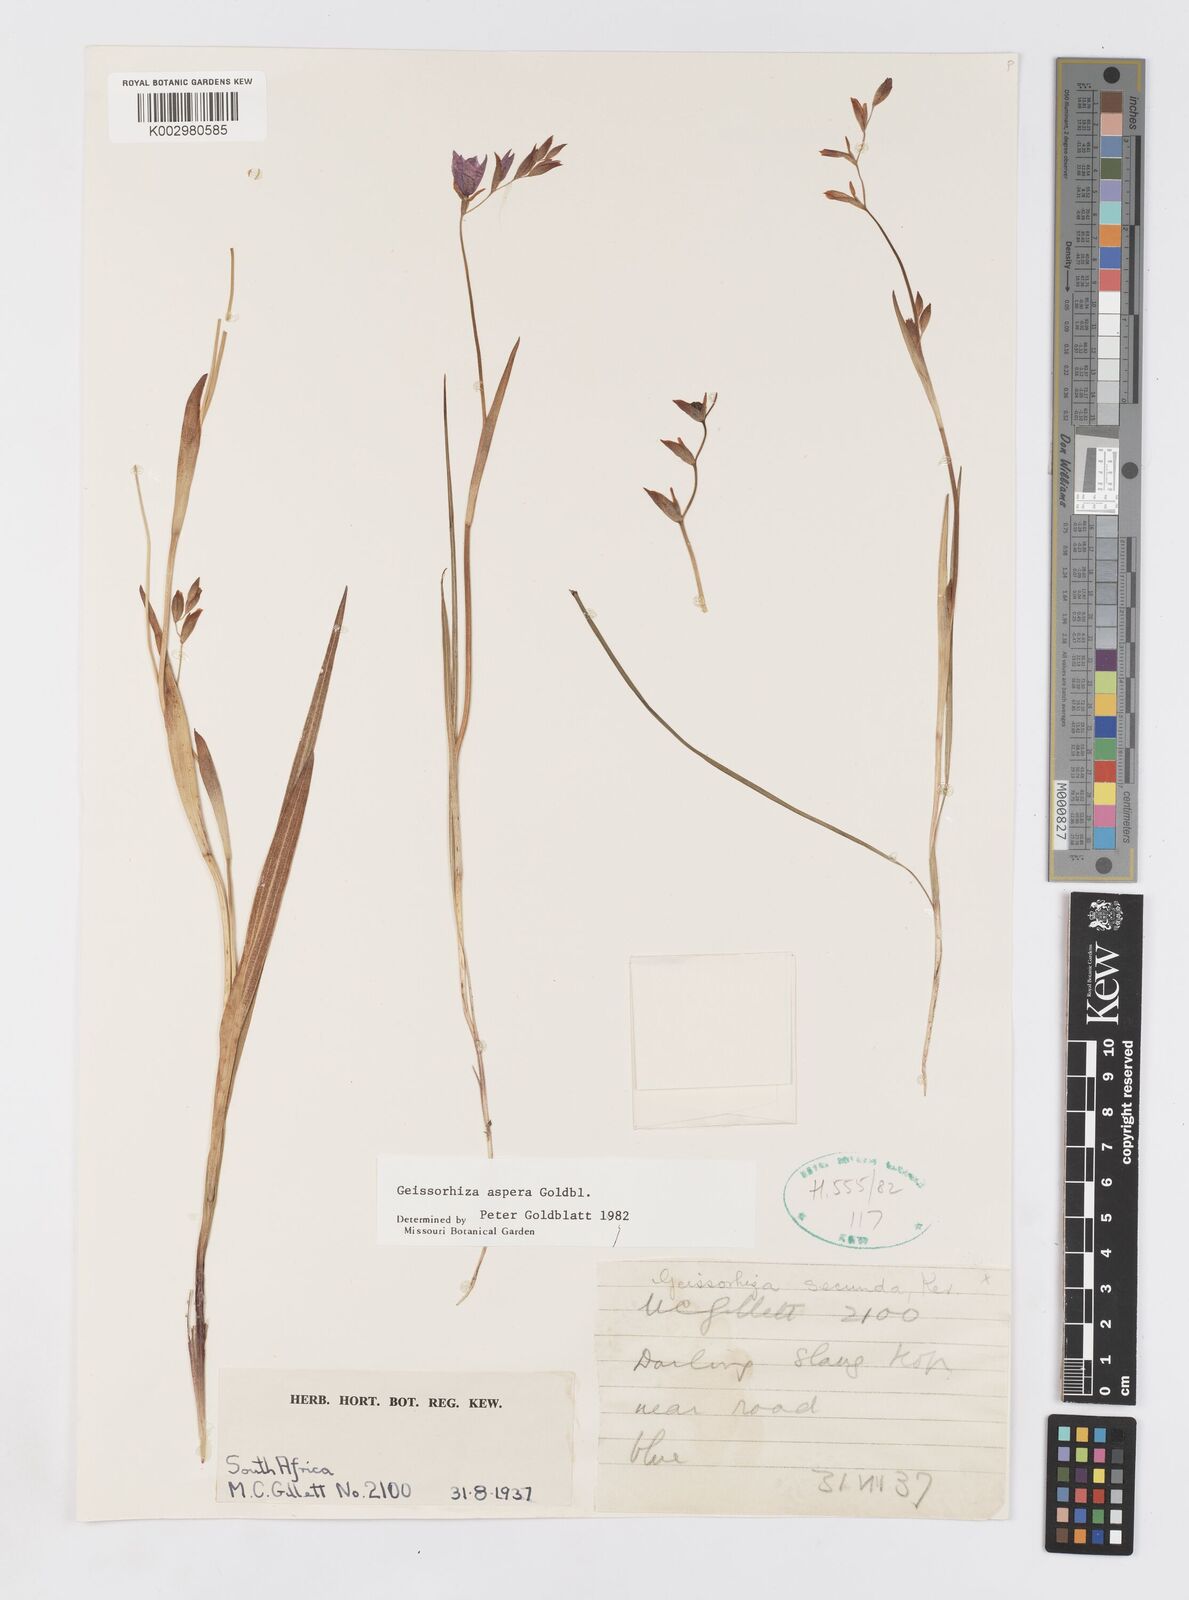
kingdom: Plantae
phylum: Tracheophyta
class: Liliopsida
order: Asparagales
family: Iridaceae
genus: Geissorhiza
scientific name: Geissorhiza aspera
